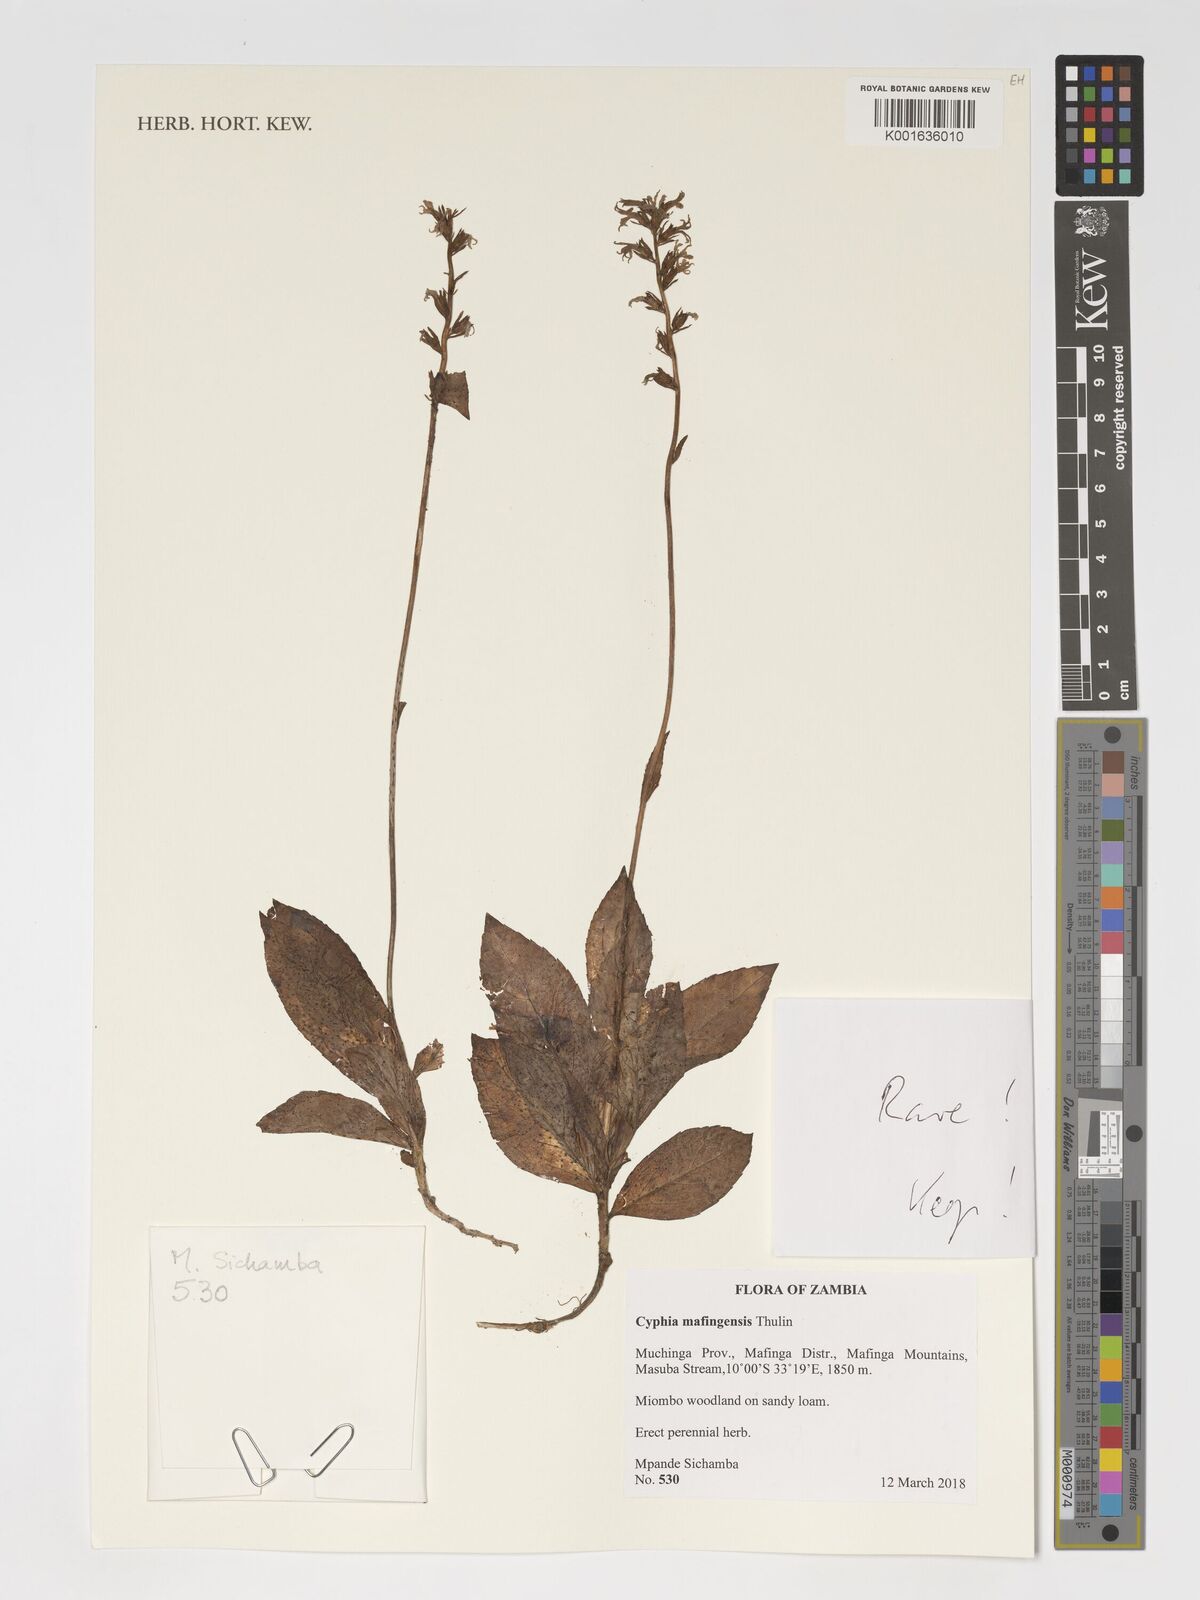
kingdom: Plantae
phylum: Tracheophyta
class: Magnoliopsida
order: Asterales
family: Campanulaceae
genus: Cyphia
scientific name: Cyphia mafingensis
